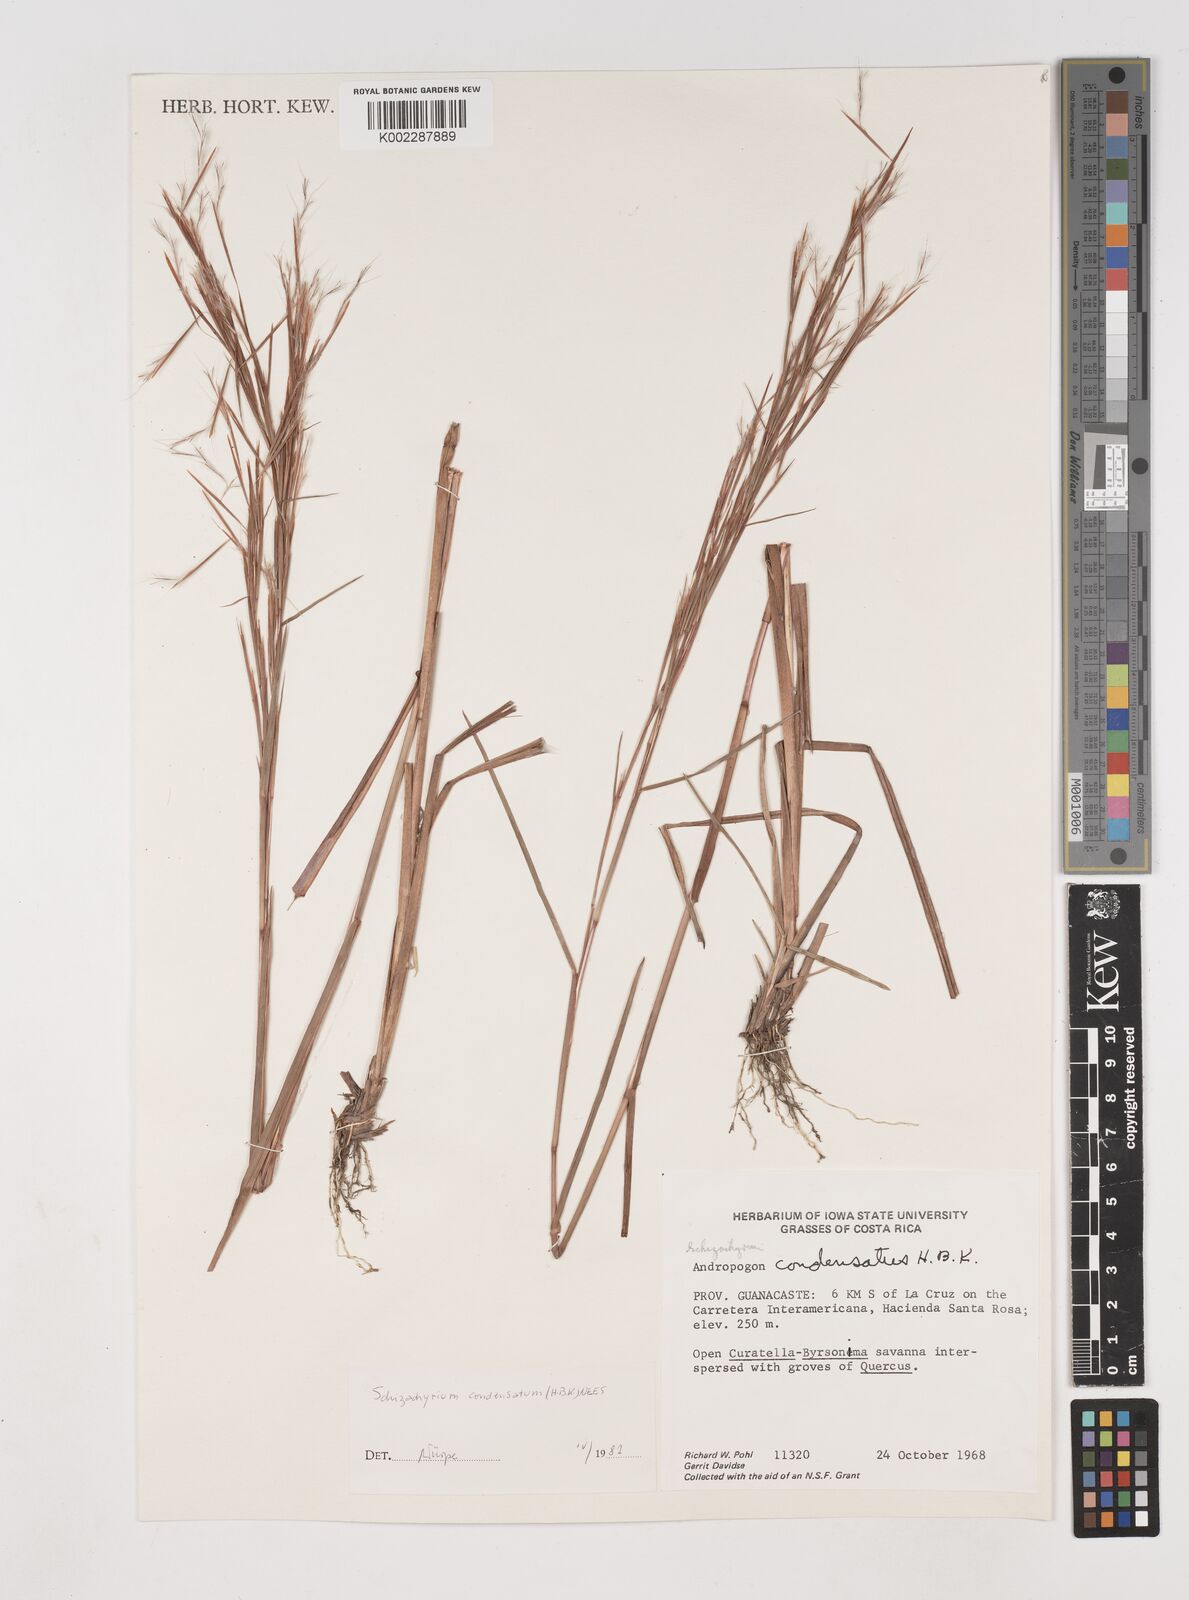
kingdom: Plantae
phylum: Tracheophyta
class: Liliopsida
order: Poales
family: Poaceae
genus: Schizachyrium
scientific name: Schizachyrium condensatum
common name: Bush beardgrass
